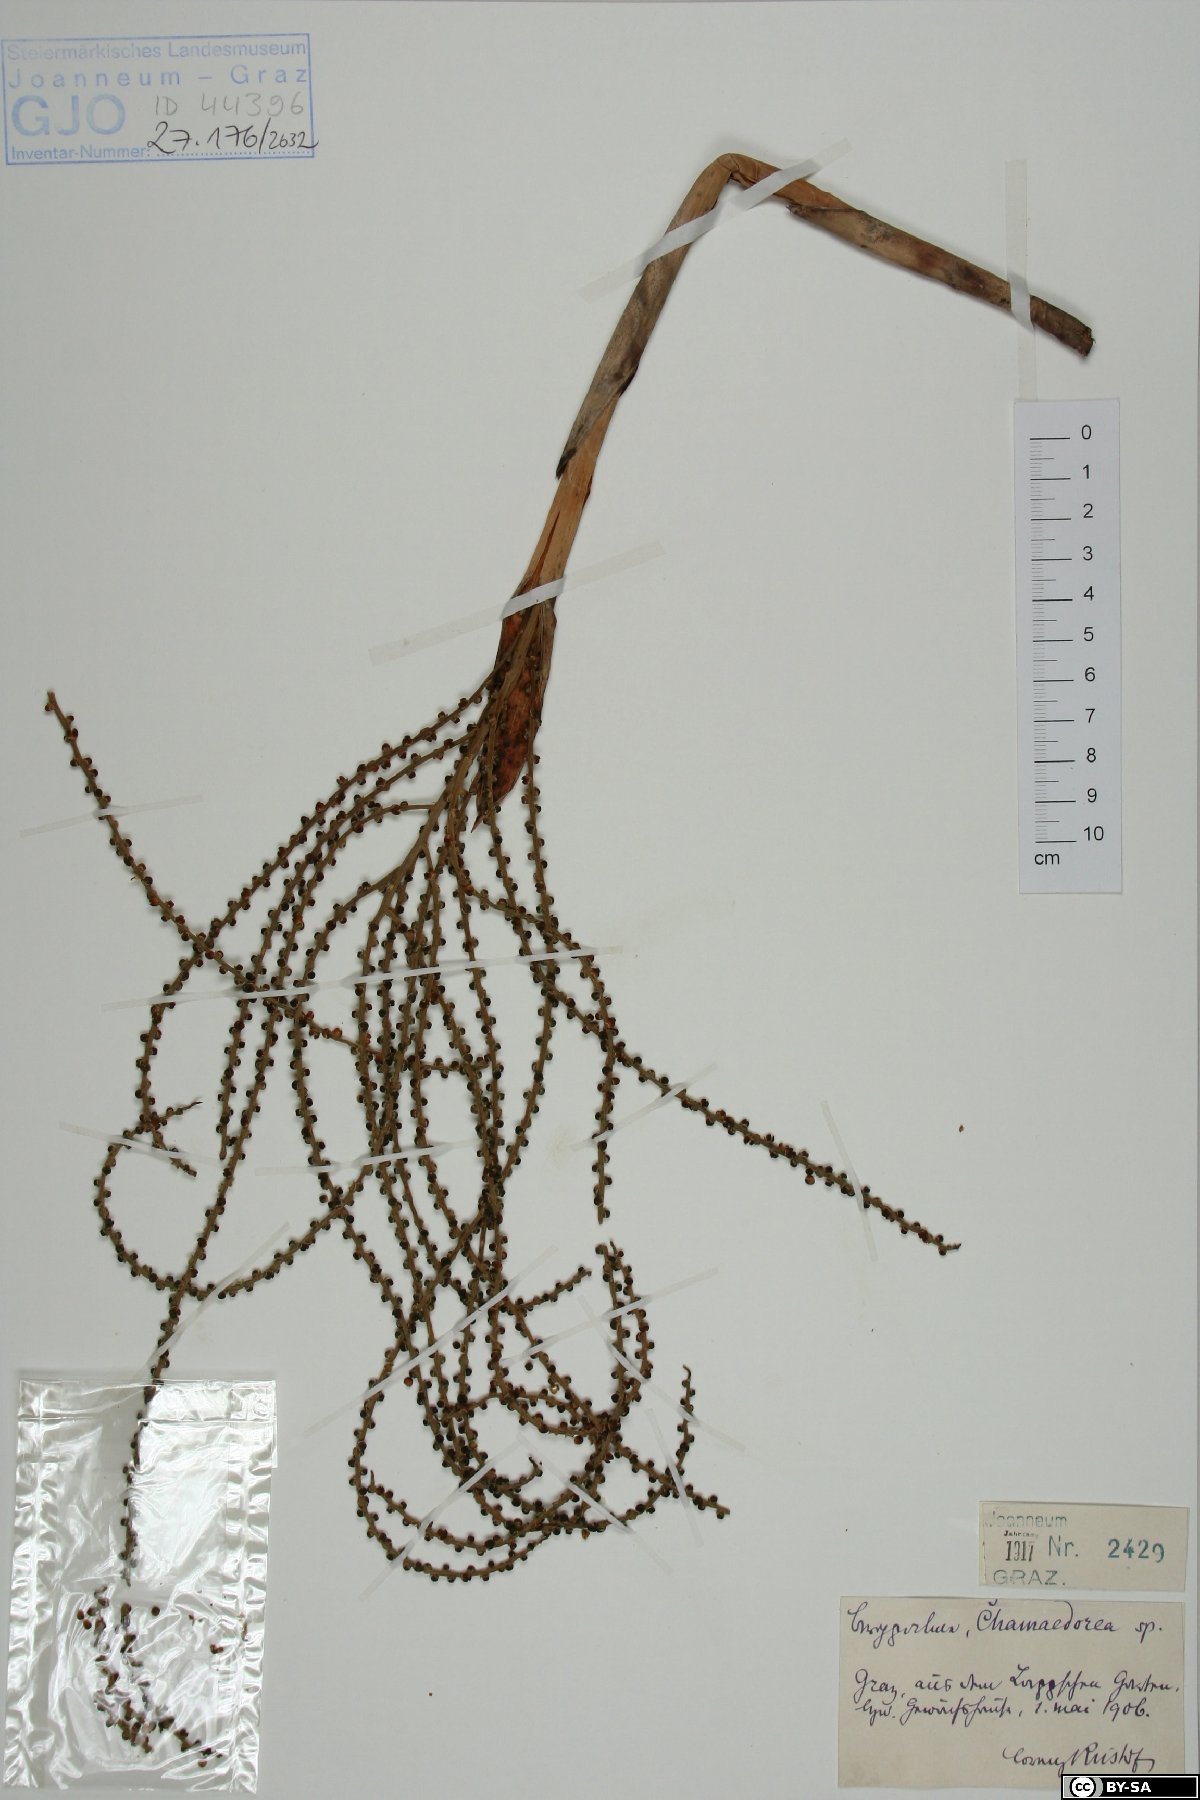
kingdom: Plantae
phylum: Tracheophyta
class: Liliopsida
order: Arecales
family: Arecaceae
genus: Chamaedorea
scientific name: Chamaedorea
